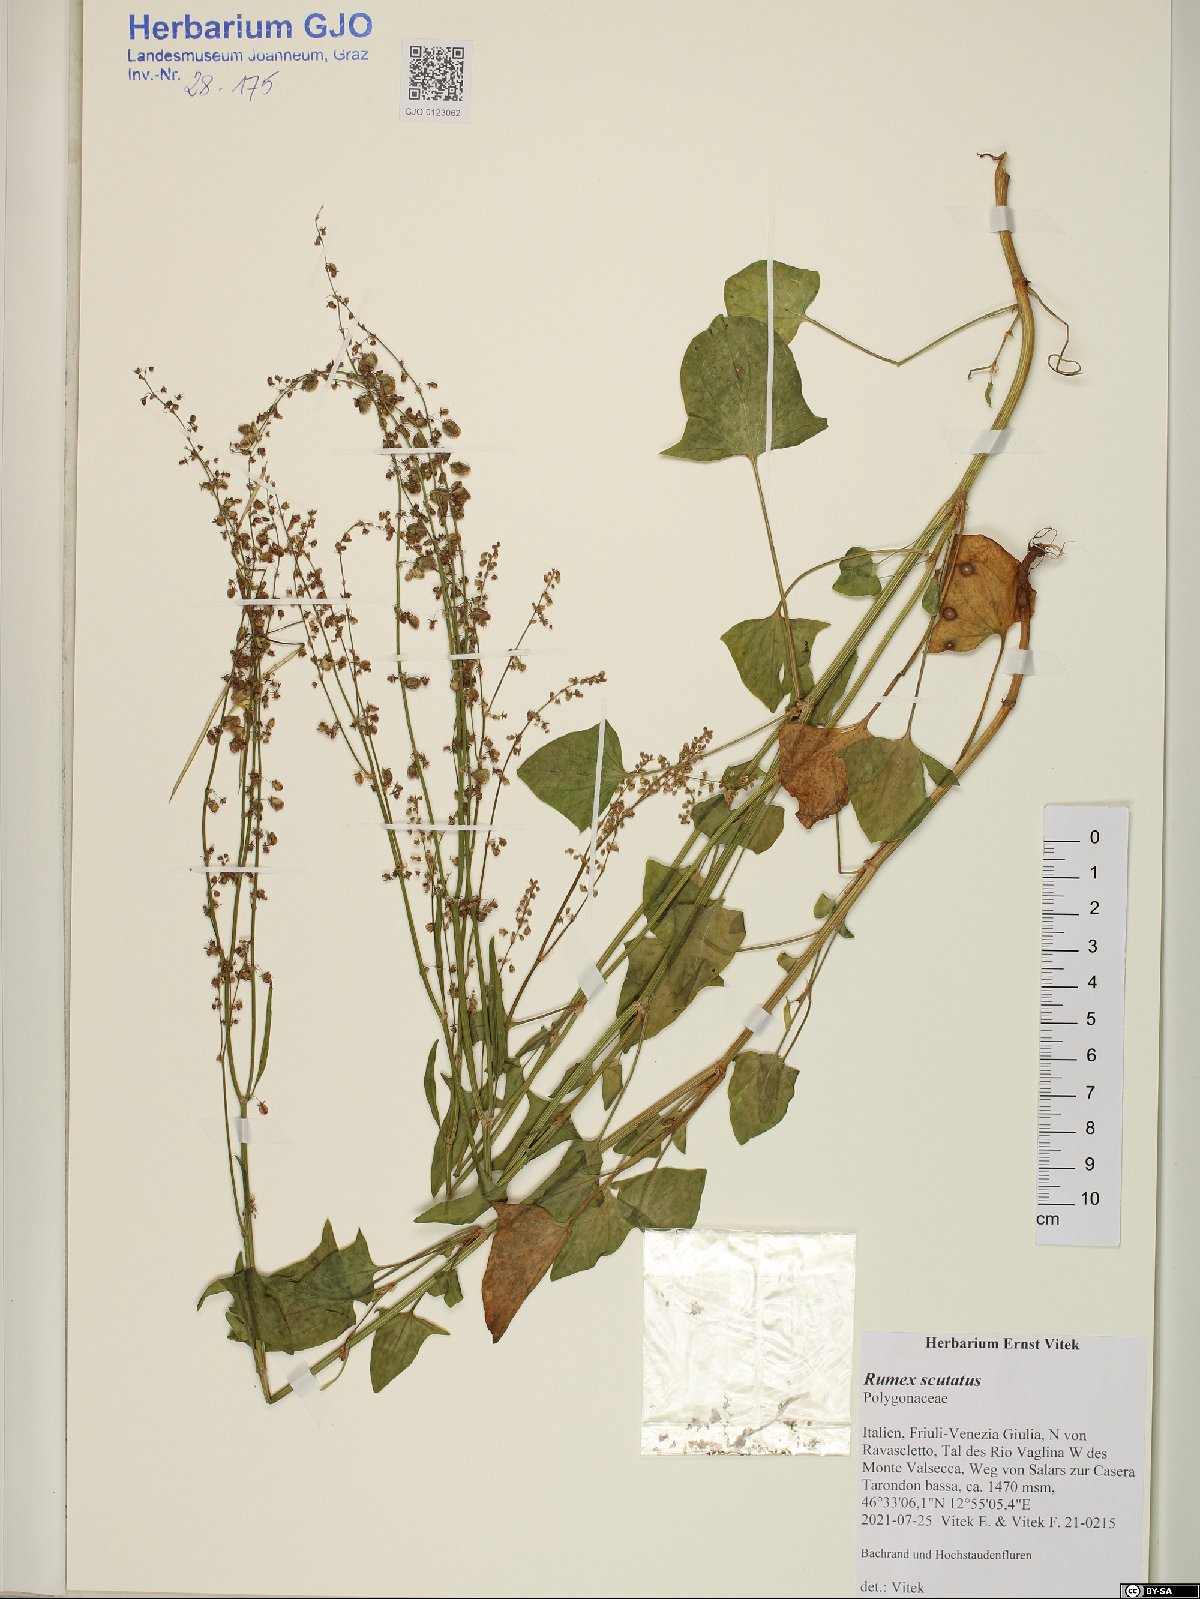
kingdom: Plantae
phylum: Tracheophyta
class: Magnoliopsida
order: Caryophyllales
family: Polygonaceae
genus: Rumex
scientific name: Rumex scutatus
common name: French sorrel
